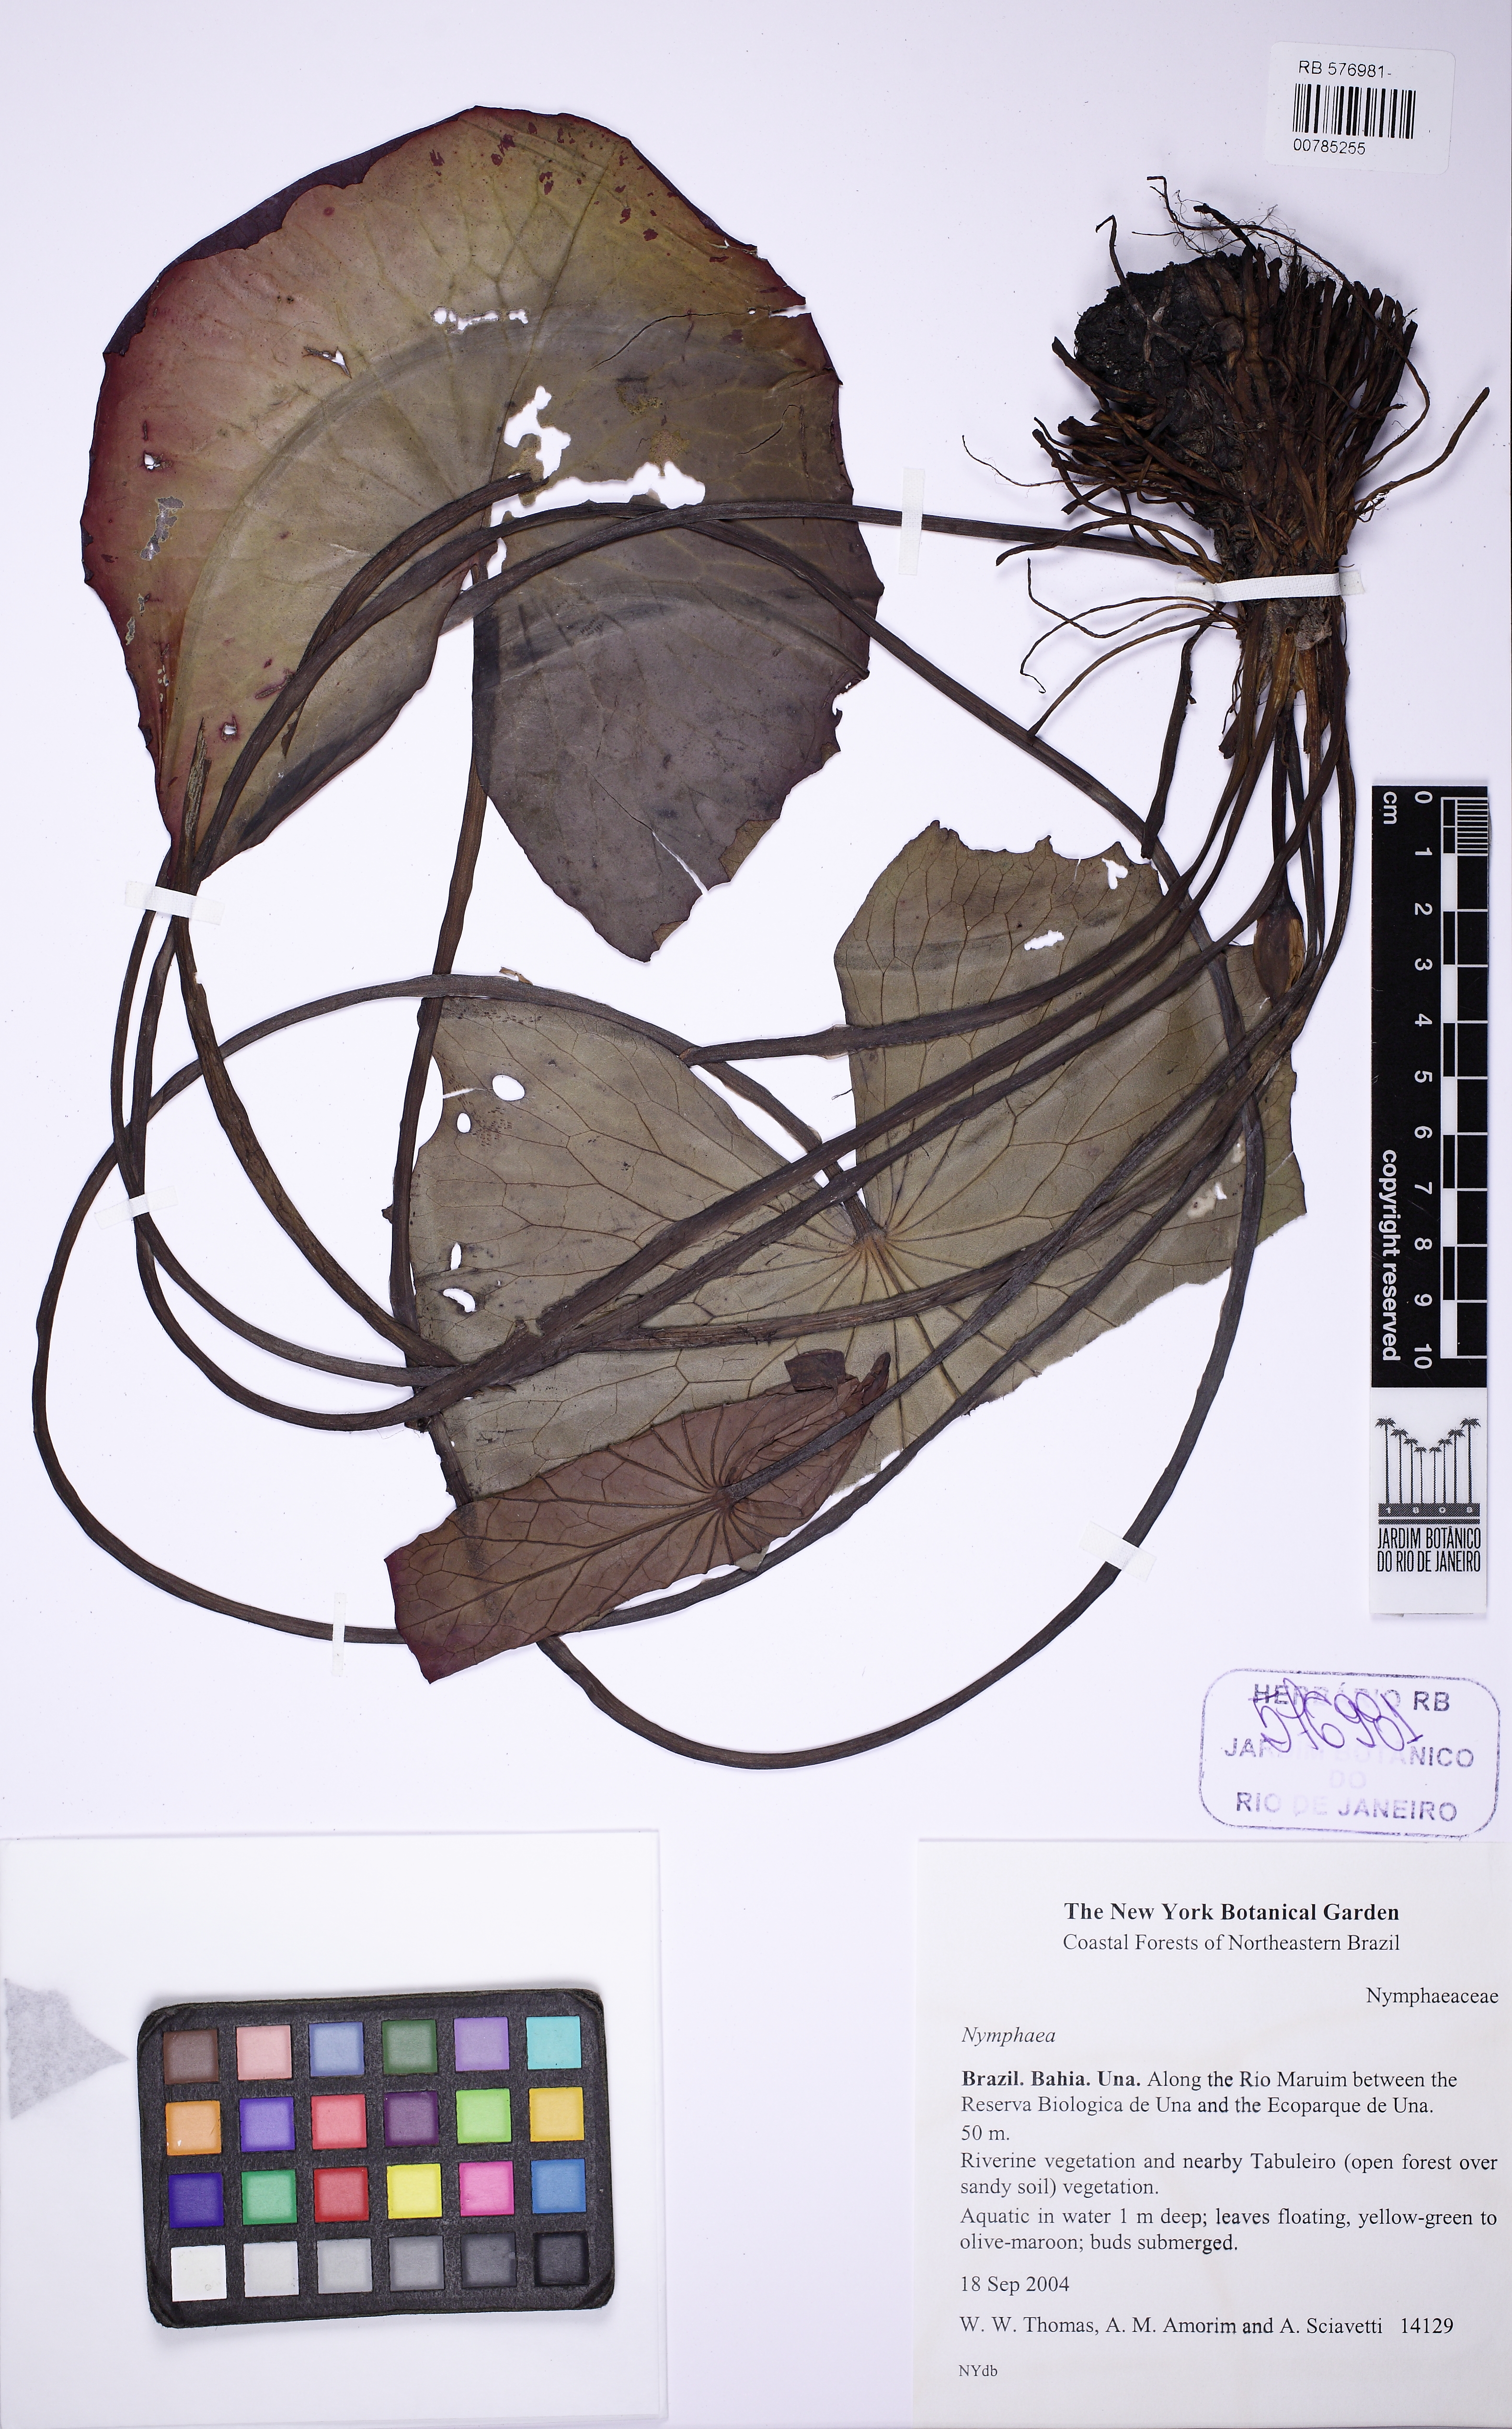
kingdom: Plantae
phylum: Tracheophyta
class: Magnoliopsida
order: Nymphaeales
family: Nymphaeaceae
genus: Nymphaea
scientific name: Nymphaea
